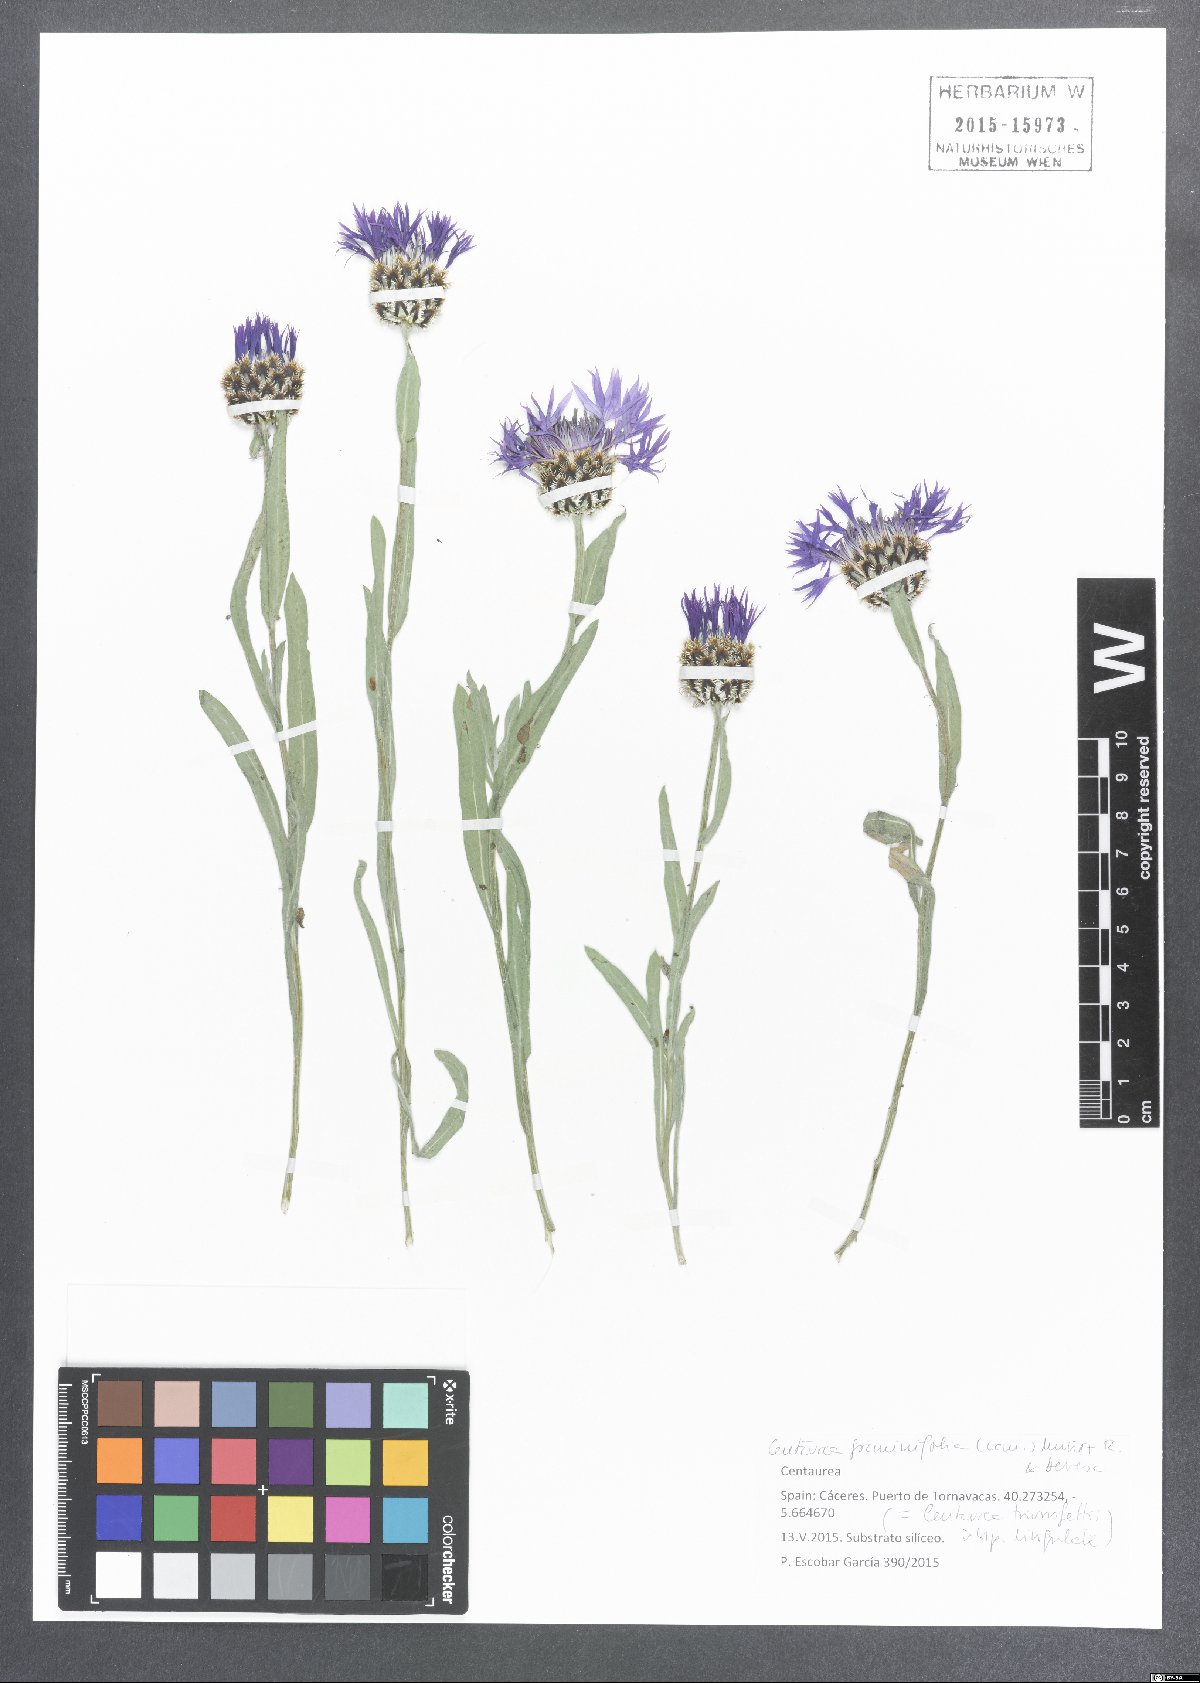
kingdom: Plantae
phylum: Tracheophyta
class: Magnoliopsida
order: Asterales
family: Asteraceae
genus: Centaurea
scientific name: Centaurea graminifolia
